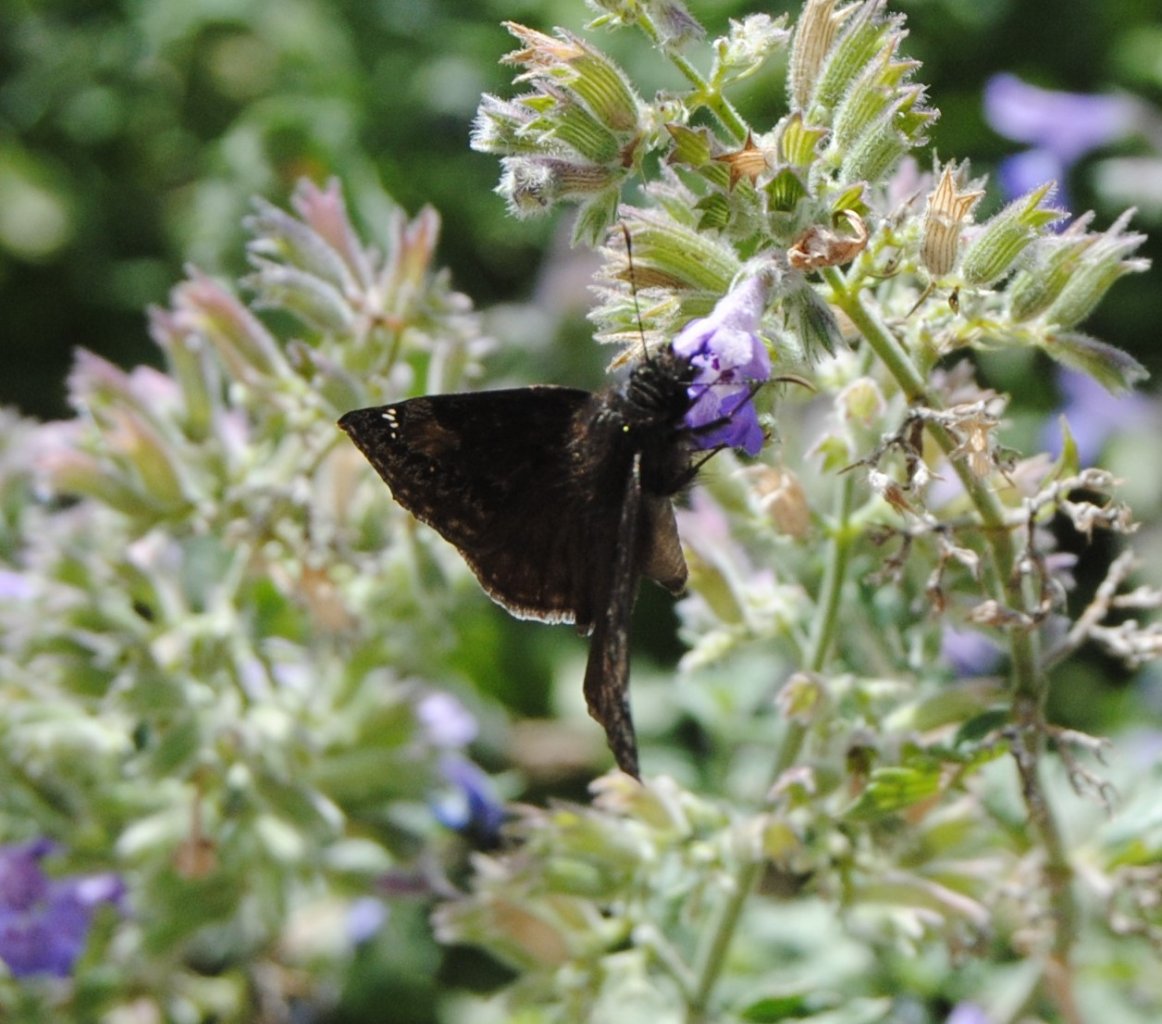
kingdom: Animalia
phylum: Arthropoda
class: Insecta
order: Lepidoptera
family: Hesperiidae
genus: Gesta
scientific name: Gesta
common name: Wild Indigo Duskywing
